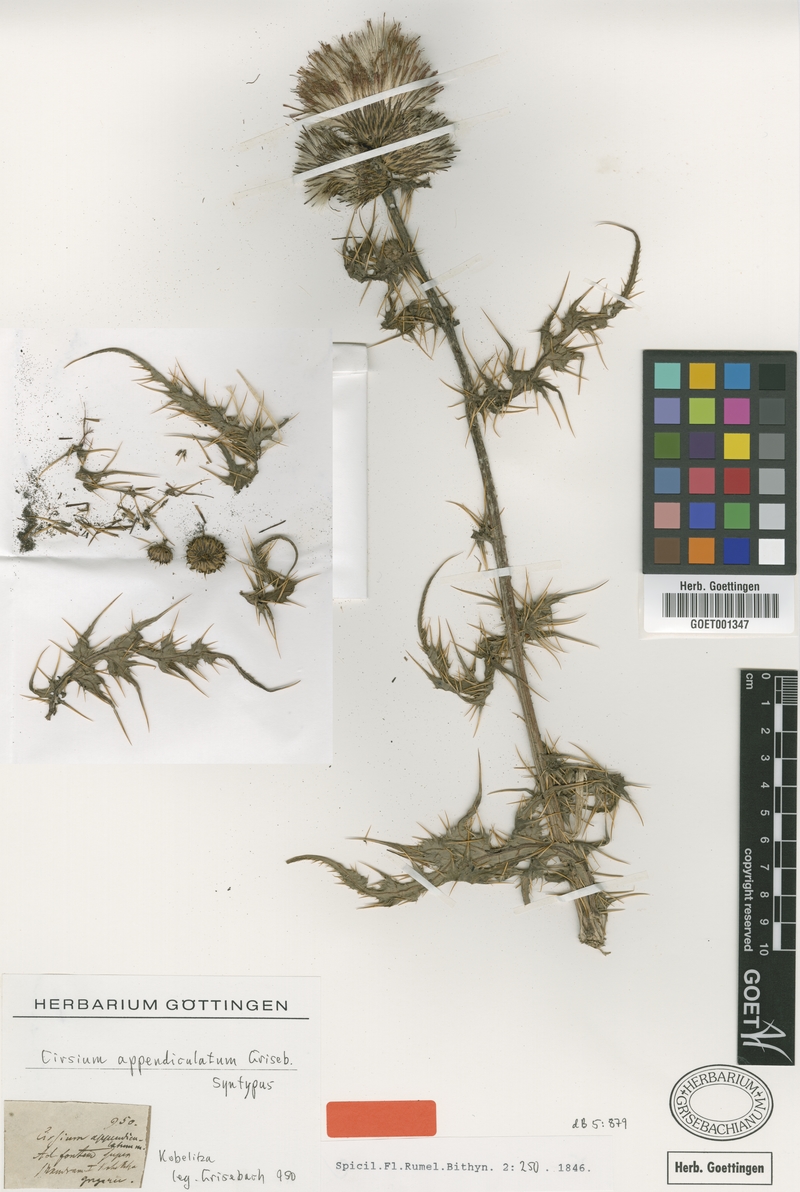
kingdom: Plantae
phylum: Tracheophyta
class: Magnoliopsida
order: Asterales
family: Asteraceae
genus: Cirsium
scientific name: Cirsium appendiculatum
